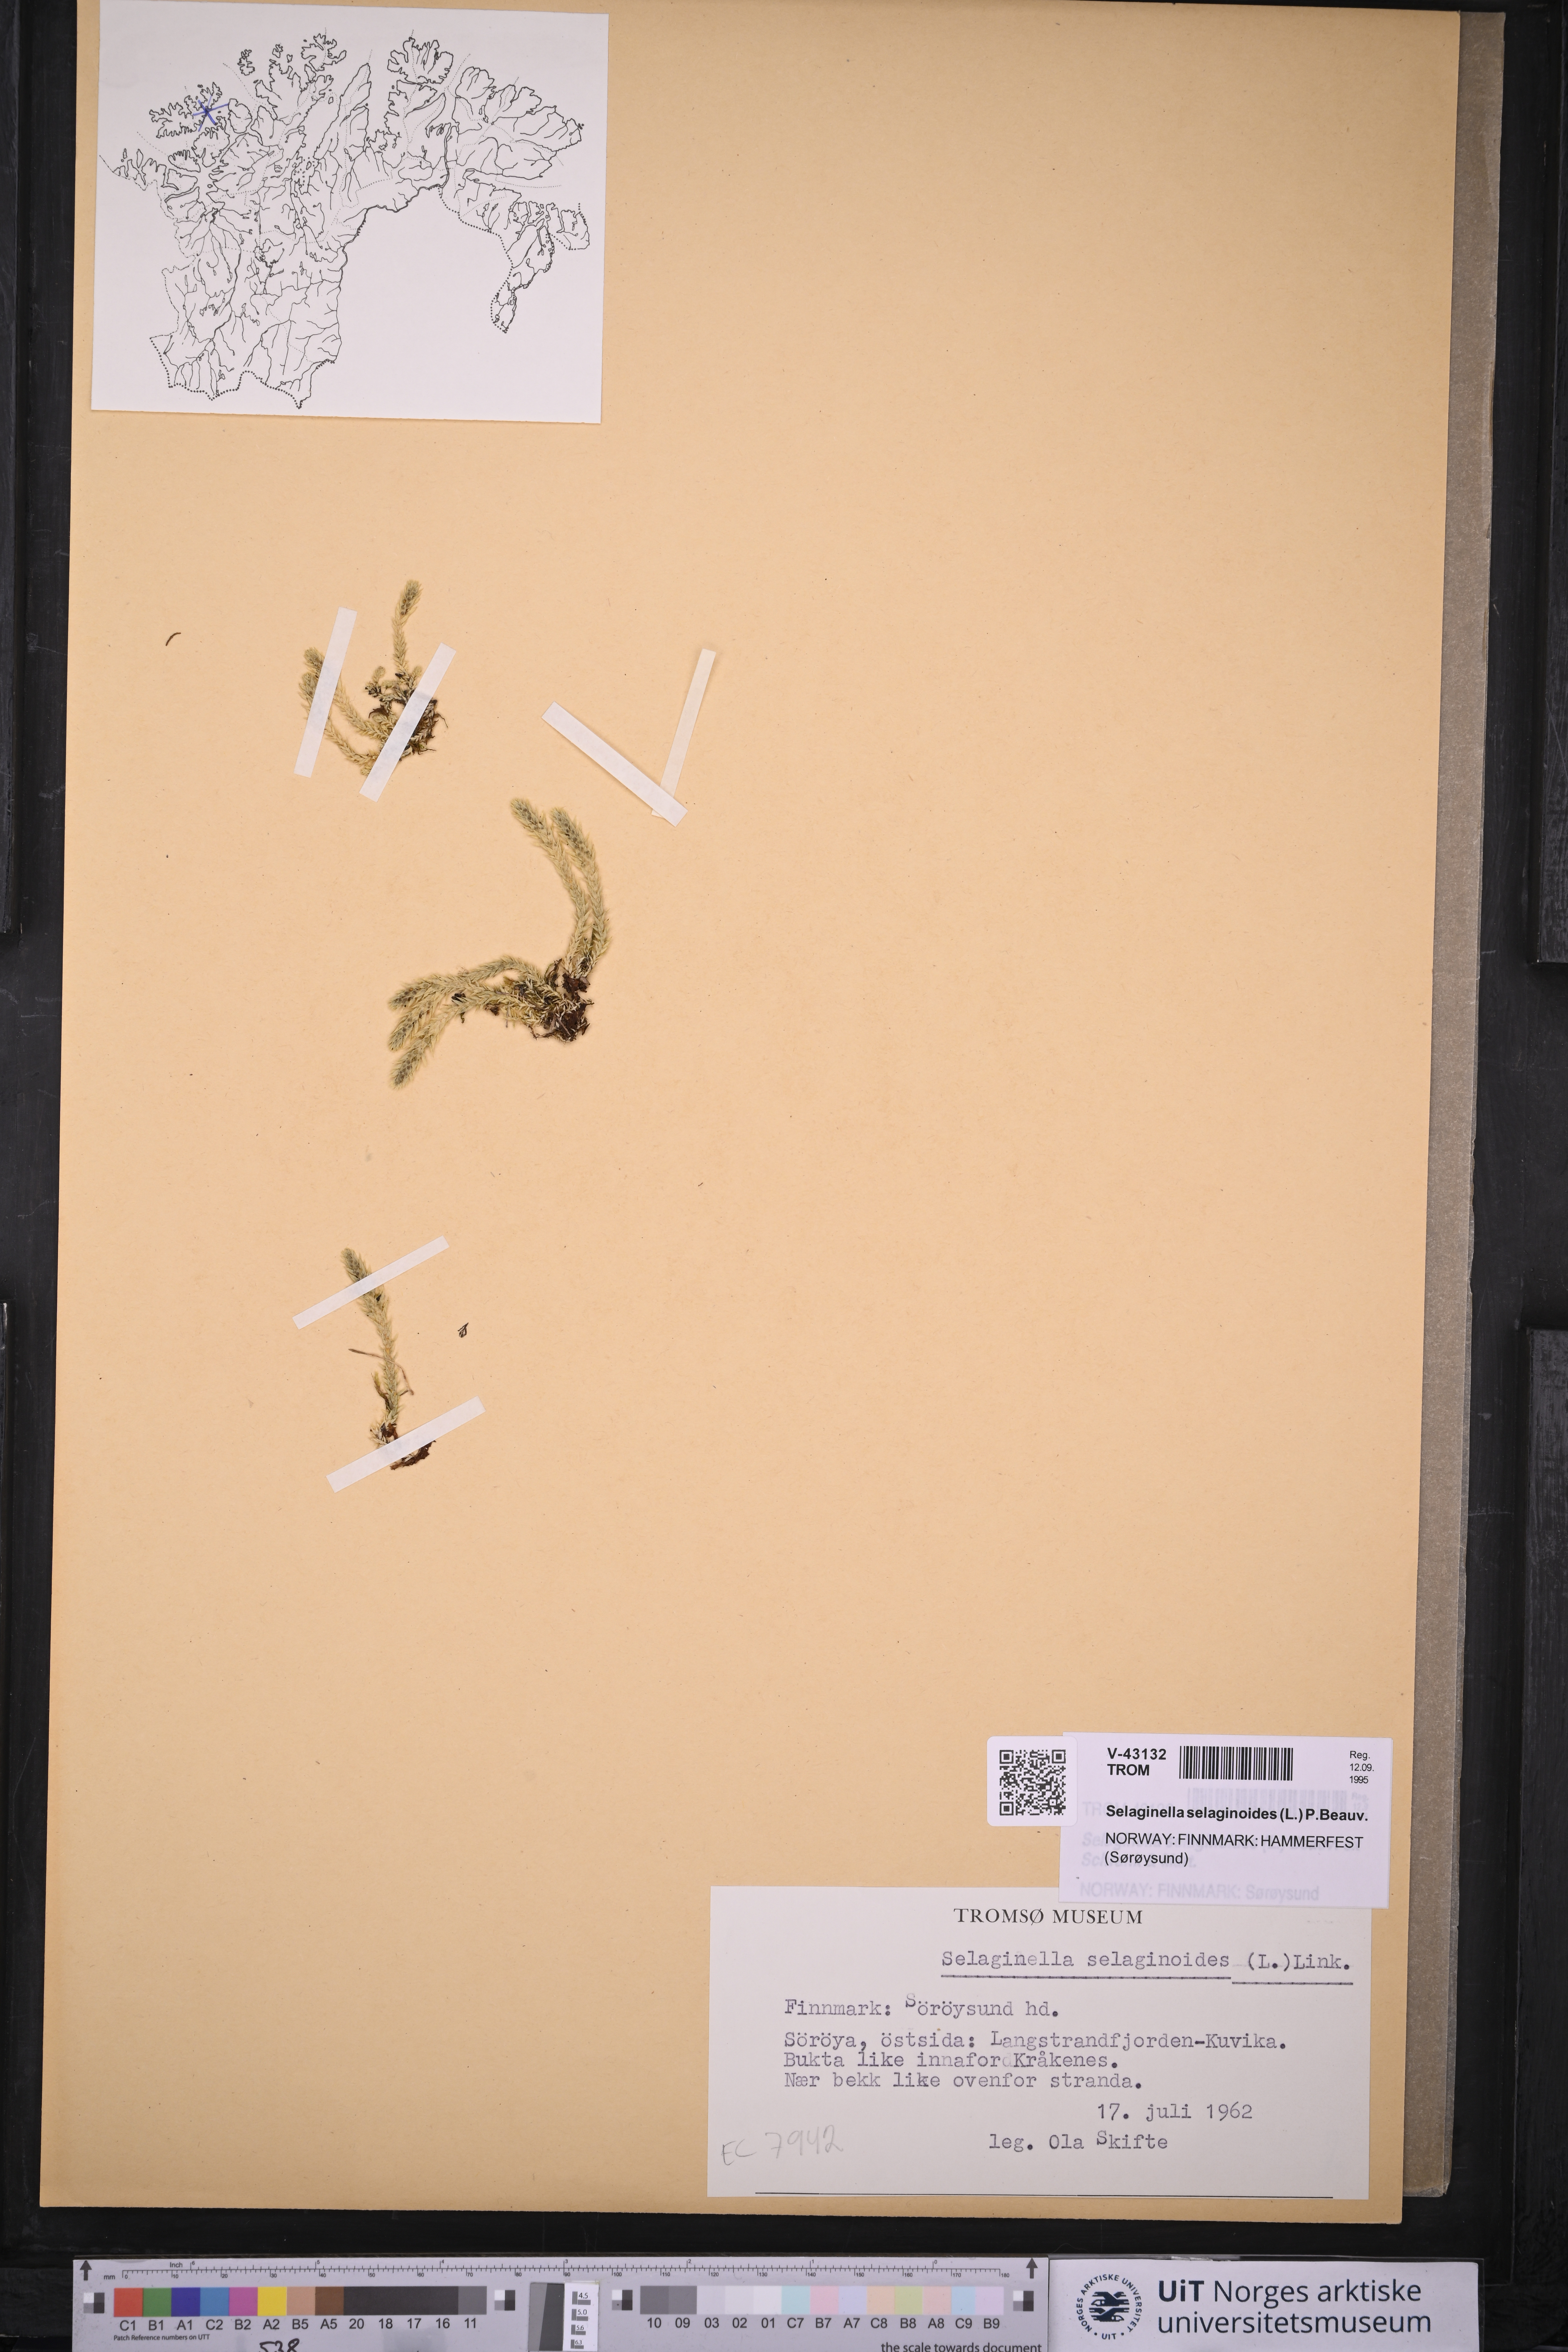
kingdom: Plantae
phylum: Tracheophyta
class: Lycopodiopsida
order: Selaginellales
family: Selaginellaceae
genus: Selaginella
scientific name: Selaginella selaginoides
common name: Prickly mountain-moss
